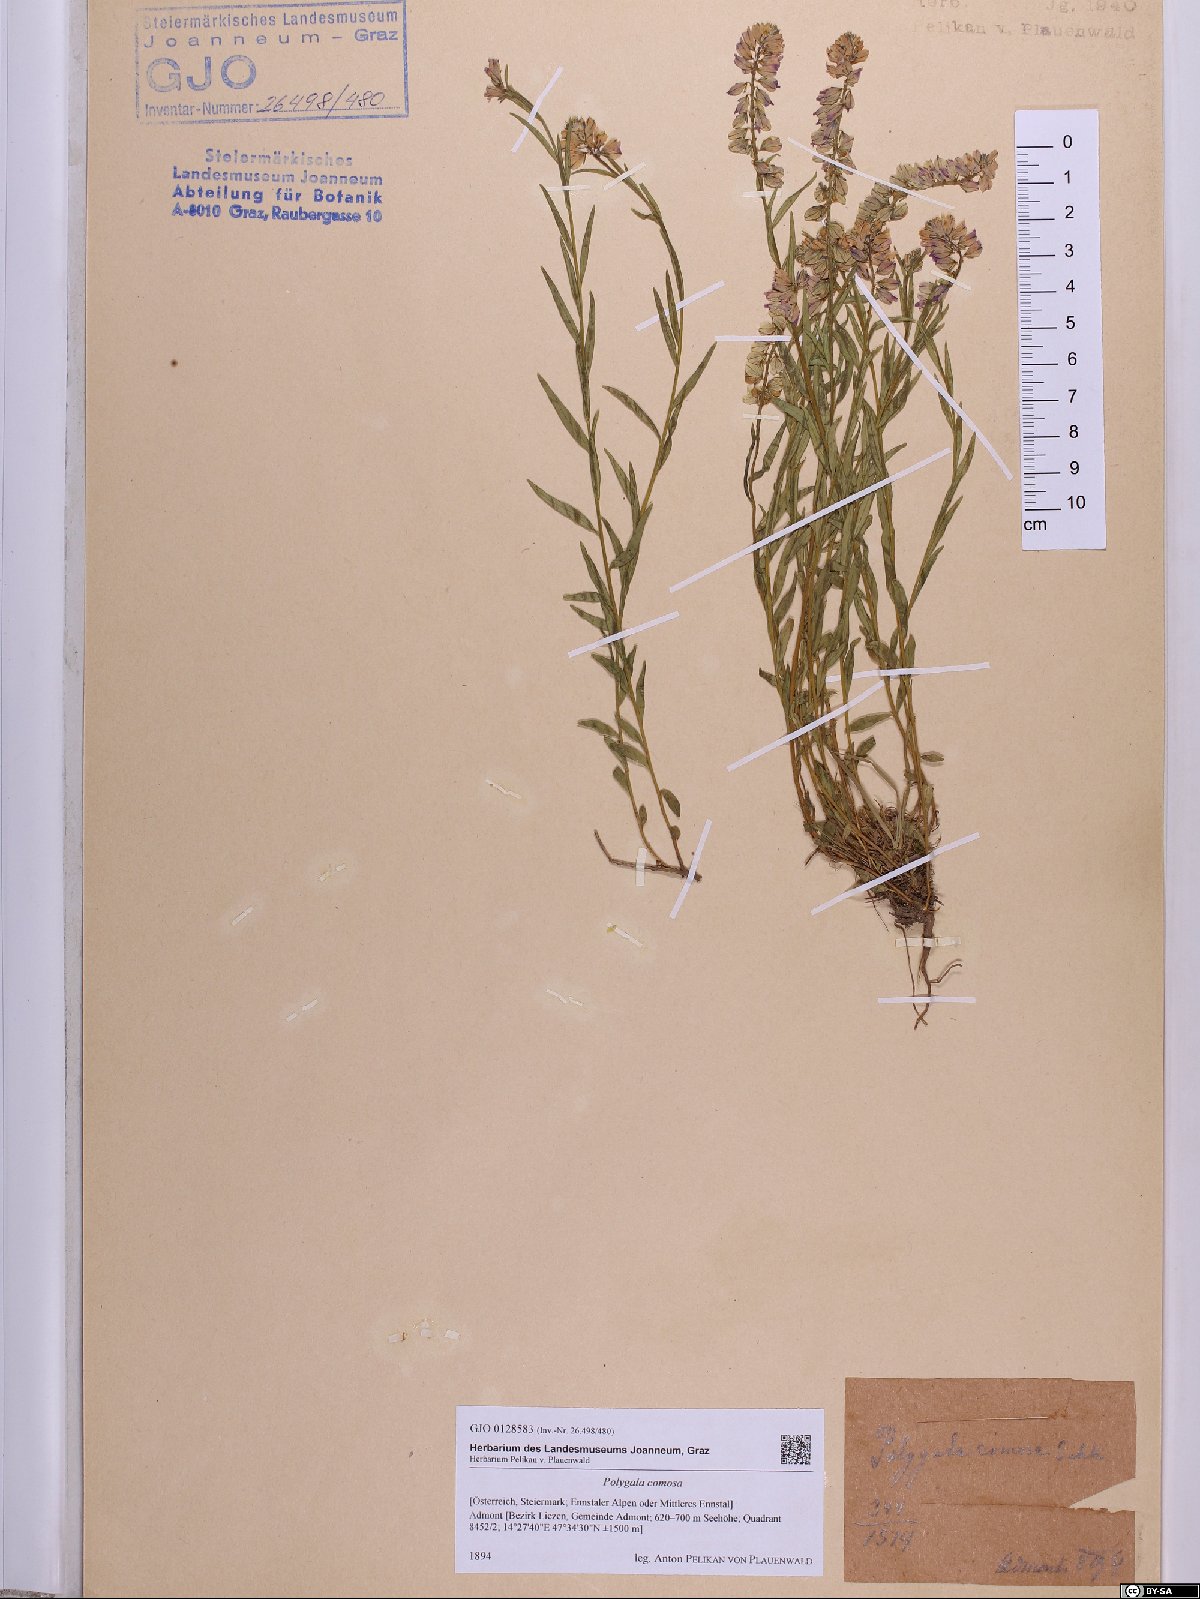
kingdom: Plantae
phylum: Tracheophyta
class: Magnoliopsida
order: Fabales
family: Polygalaceae
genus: Polygala
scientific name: Polygala comosa
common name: Tufted milkwort
